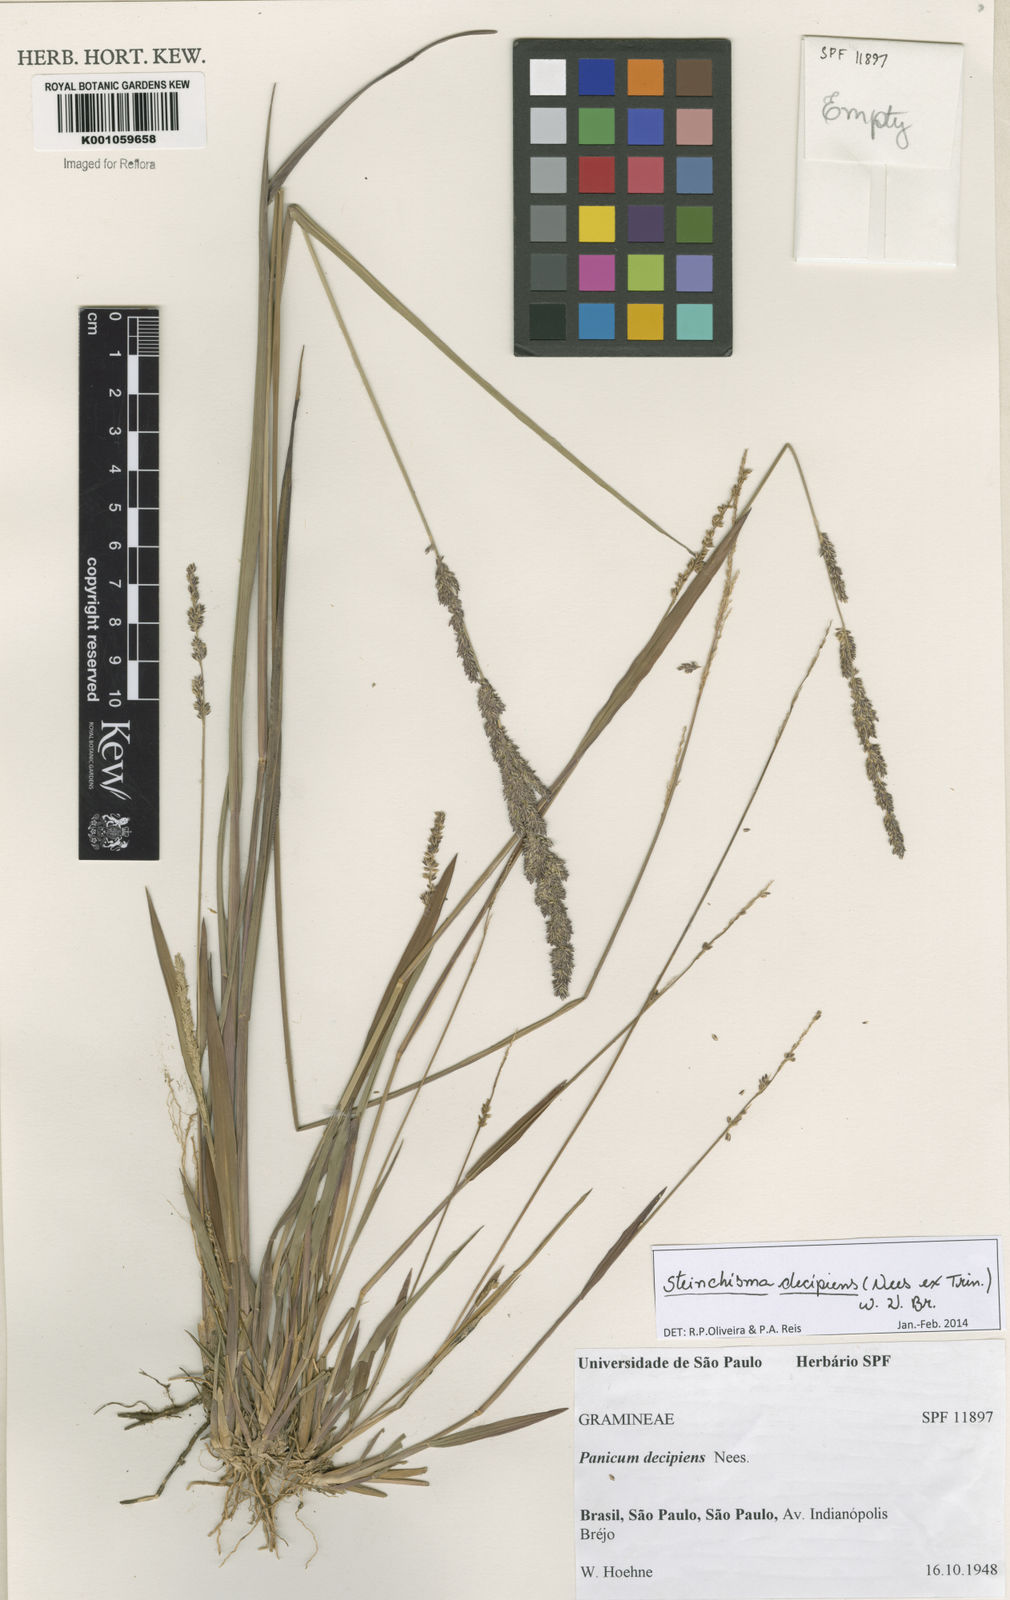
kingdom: Plantae
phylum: Tracheophyta
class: Liliopsida
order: Poales
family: Poaceae
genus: Steinchisma
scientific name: Steinchisma decipiens
